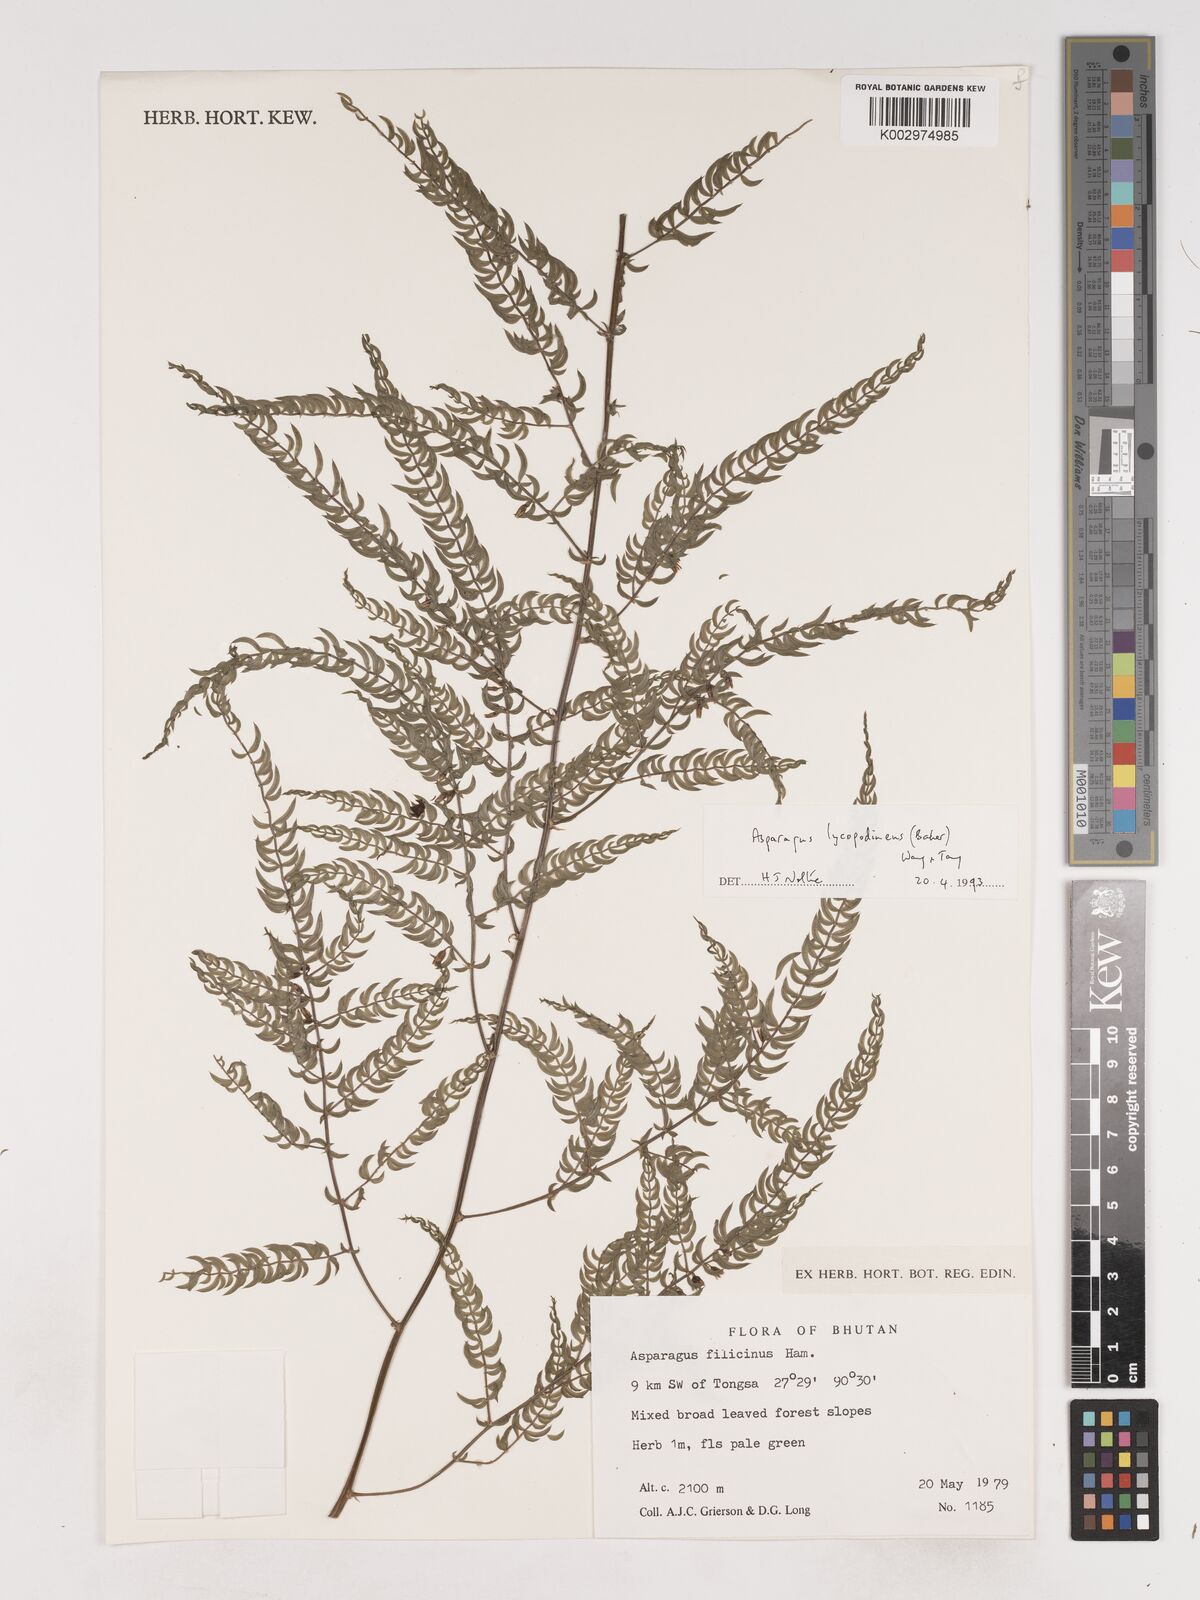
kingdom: Plantae
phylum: Tracheophyta
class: Liliopsida
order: Asparagales
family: Asparagaceae
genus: Asparagus
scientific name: Asparagus filicinus
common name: Fern asparagus
